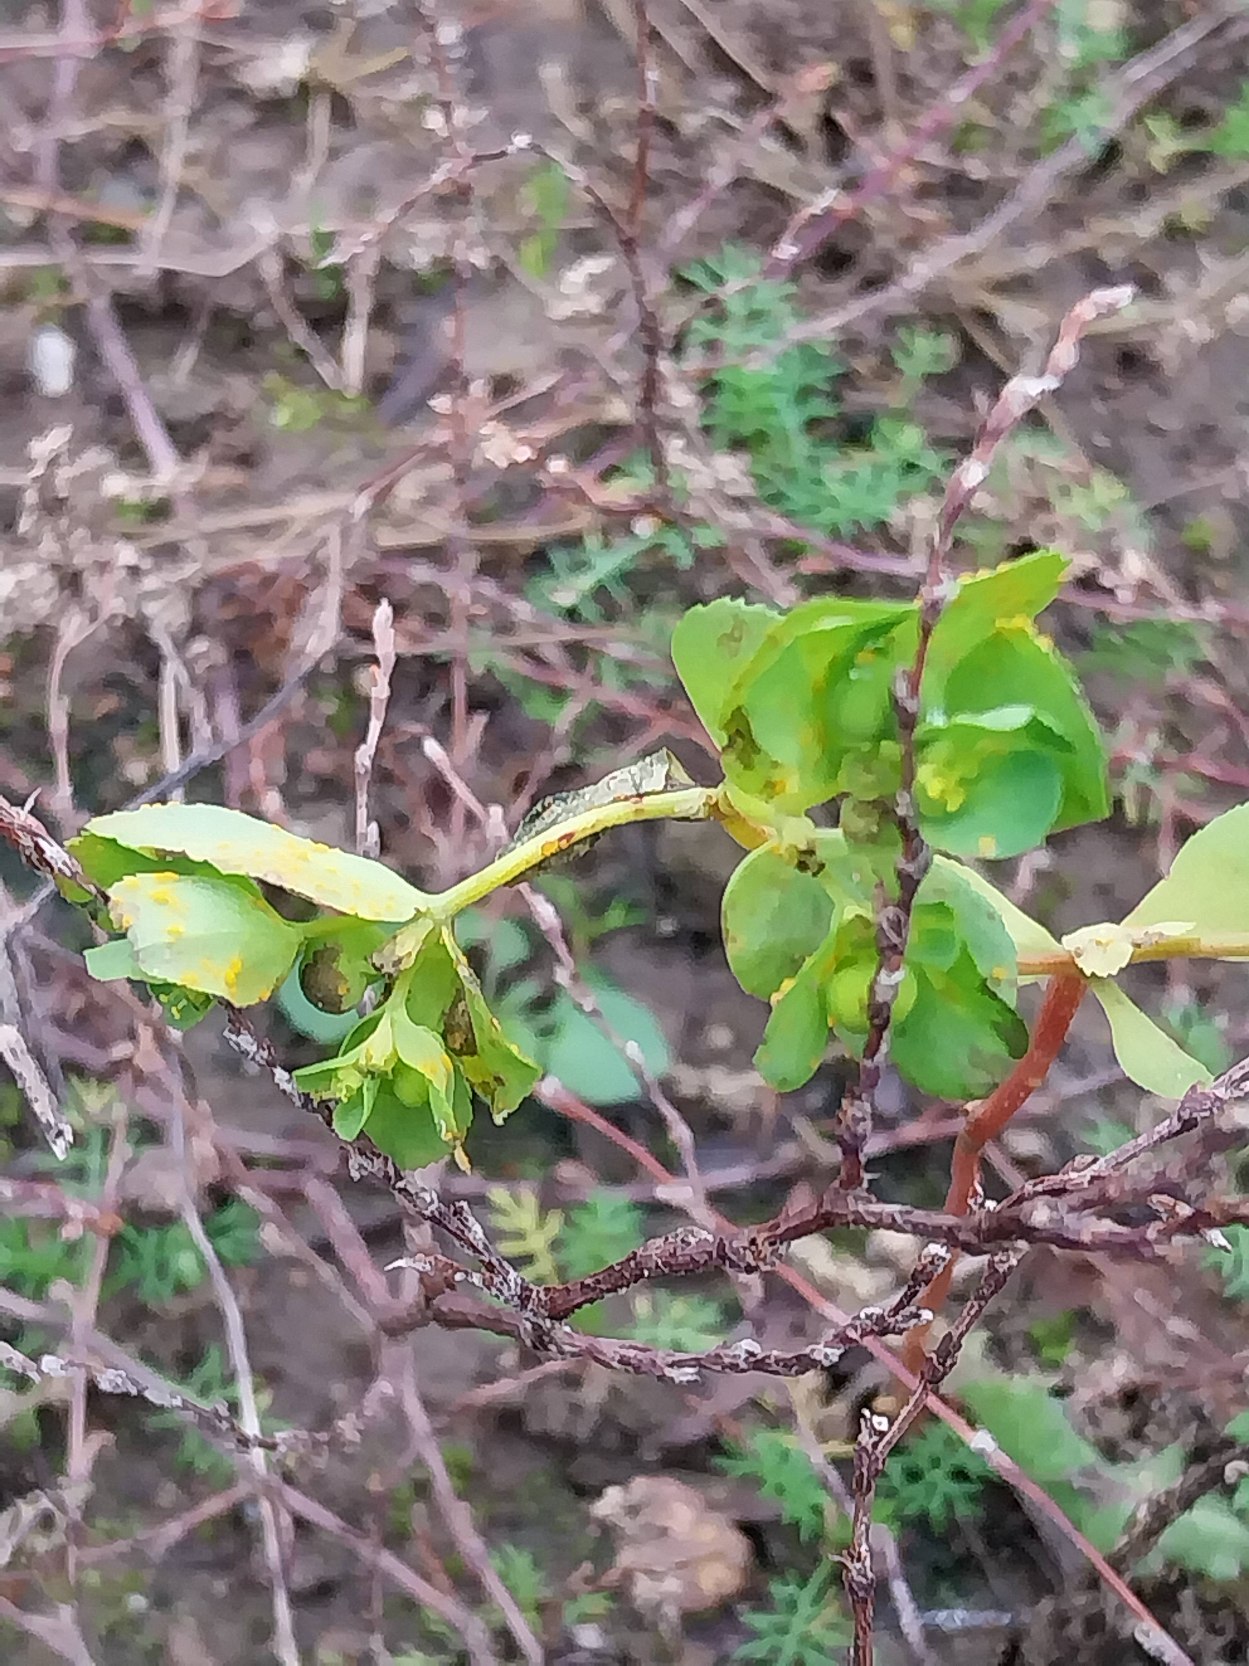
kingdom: Plantae
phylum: Tracheophyta
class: Magnoliopsida
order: Malpighiales
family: Euphorbiaceae
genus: Euphorbia
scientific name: Euphorbia helioscopia
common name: Skærm-vortemælk
